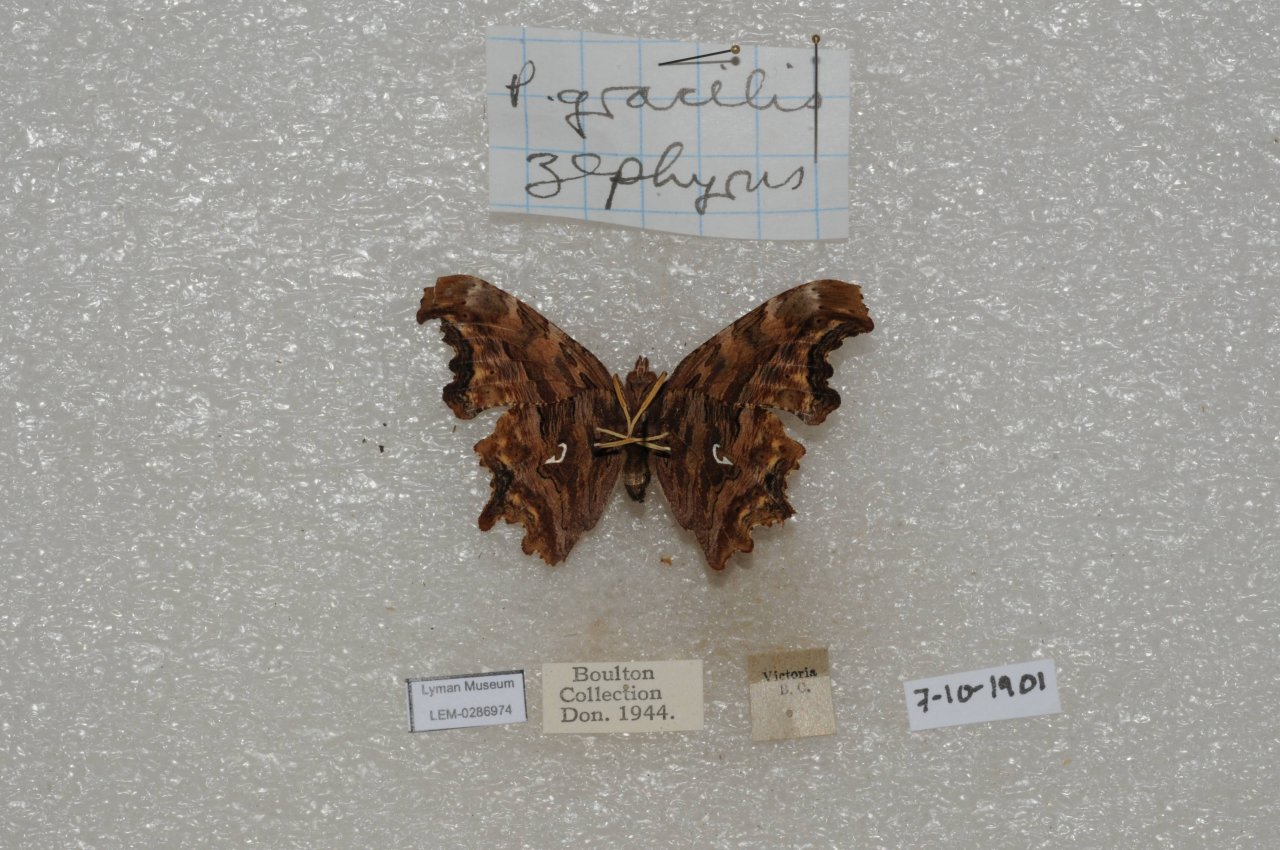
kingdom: Animalia
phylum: Arthropoda
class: Insecta
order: Lepidoptera
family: Nymphalidae
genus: Polygonia
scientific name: Polygonia gracilis
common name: Hoary Comma
